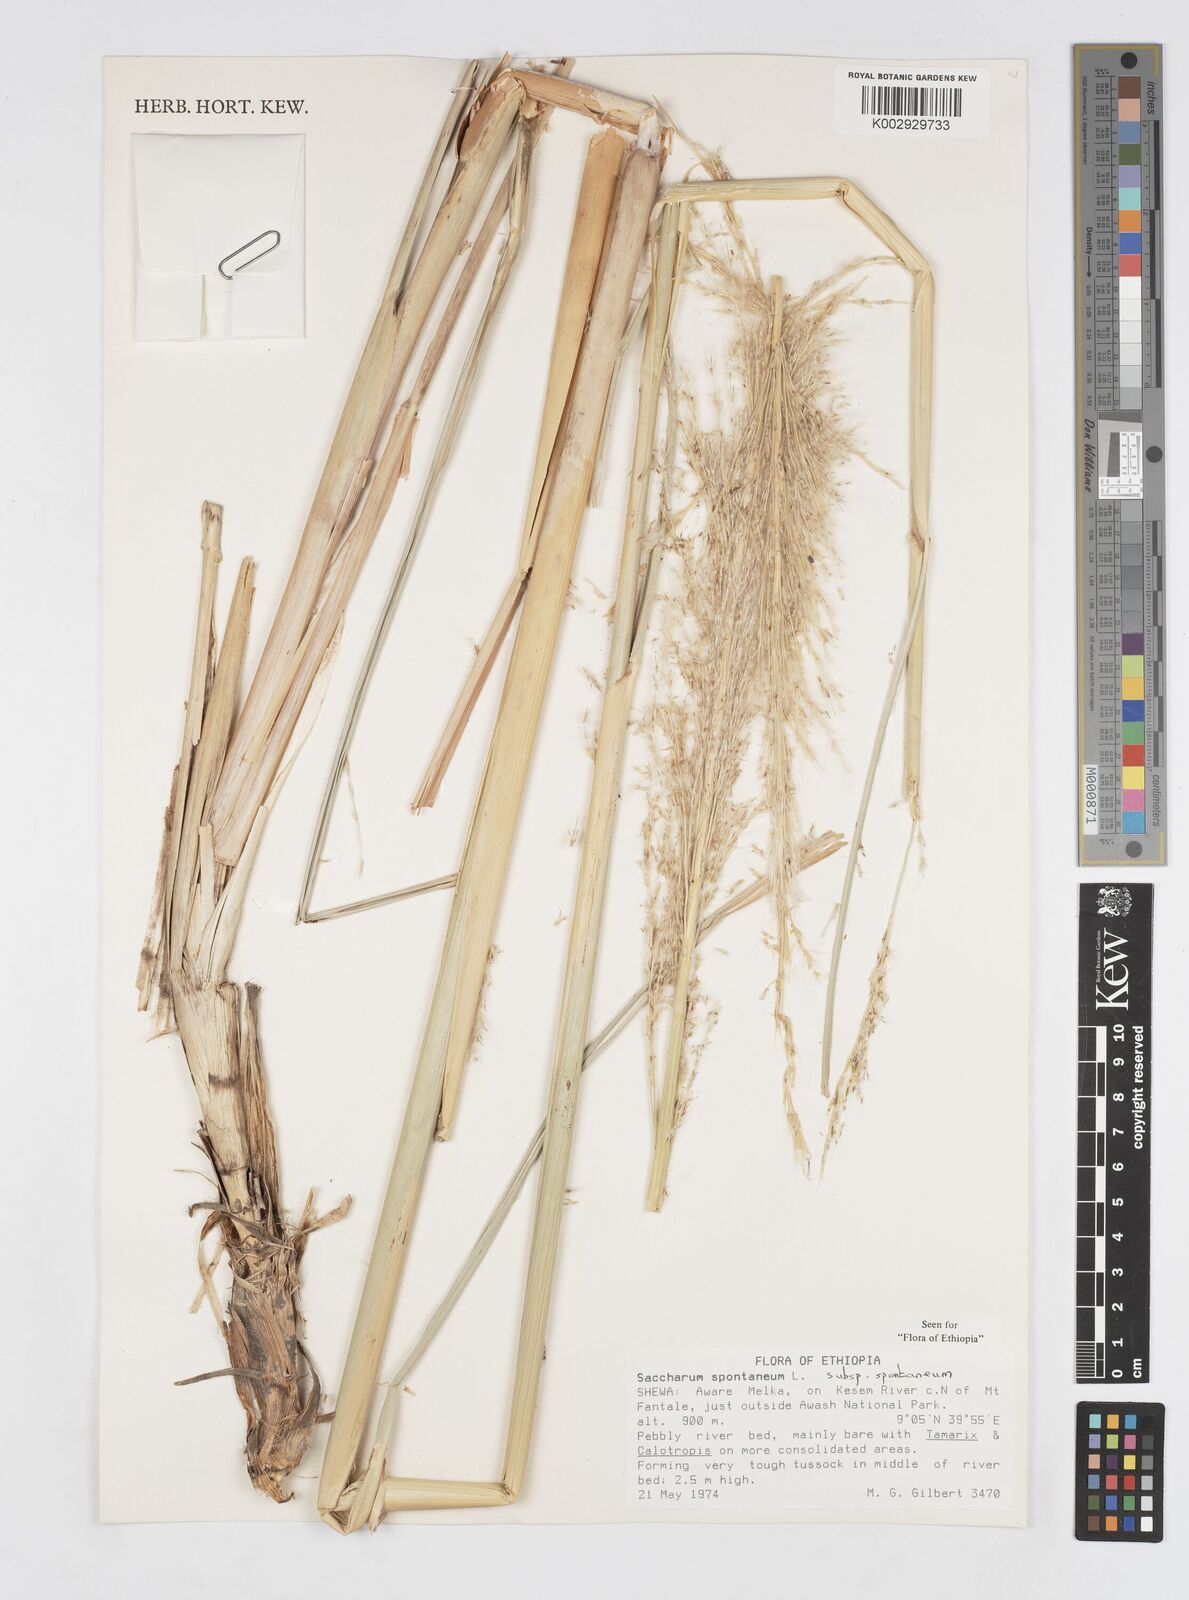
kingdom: Plantae
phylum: Tracheophyta
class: Liliopsida
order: Poales
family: Poaceae
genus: Saccharum
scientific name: Saccharum spontaneum
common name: Wild sugarcane
